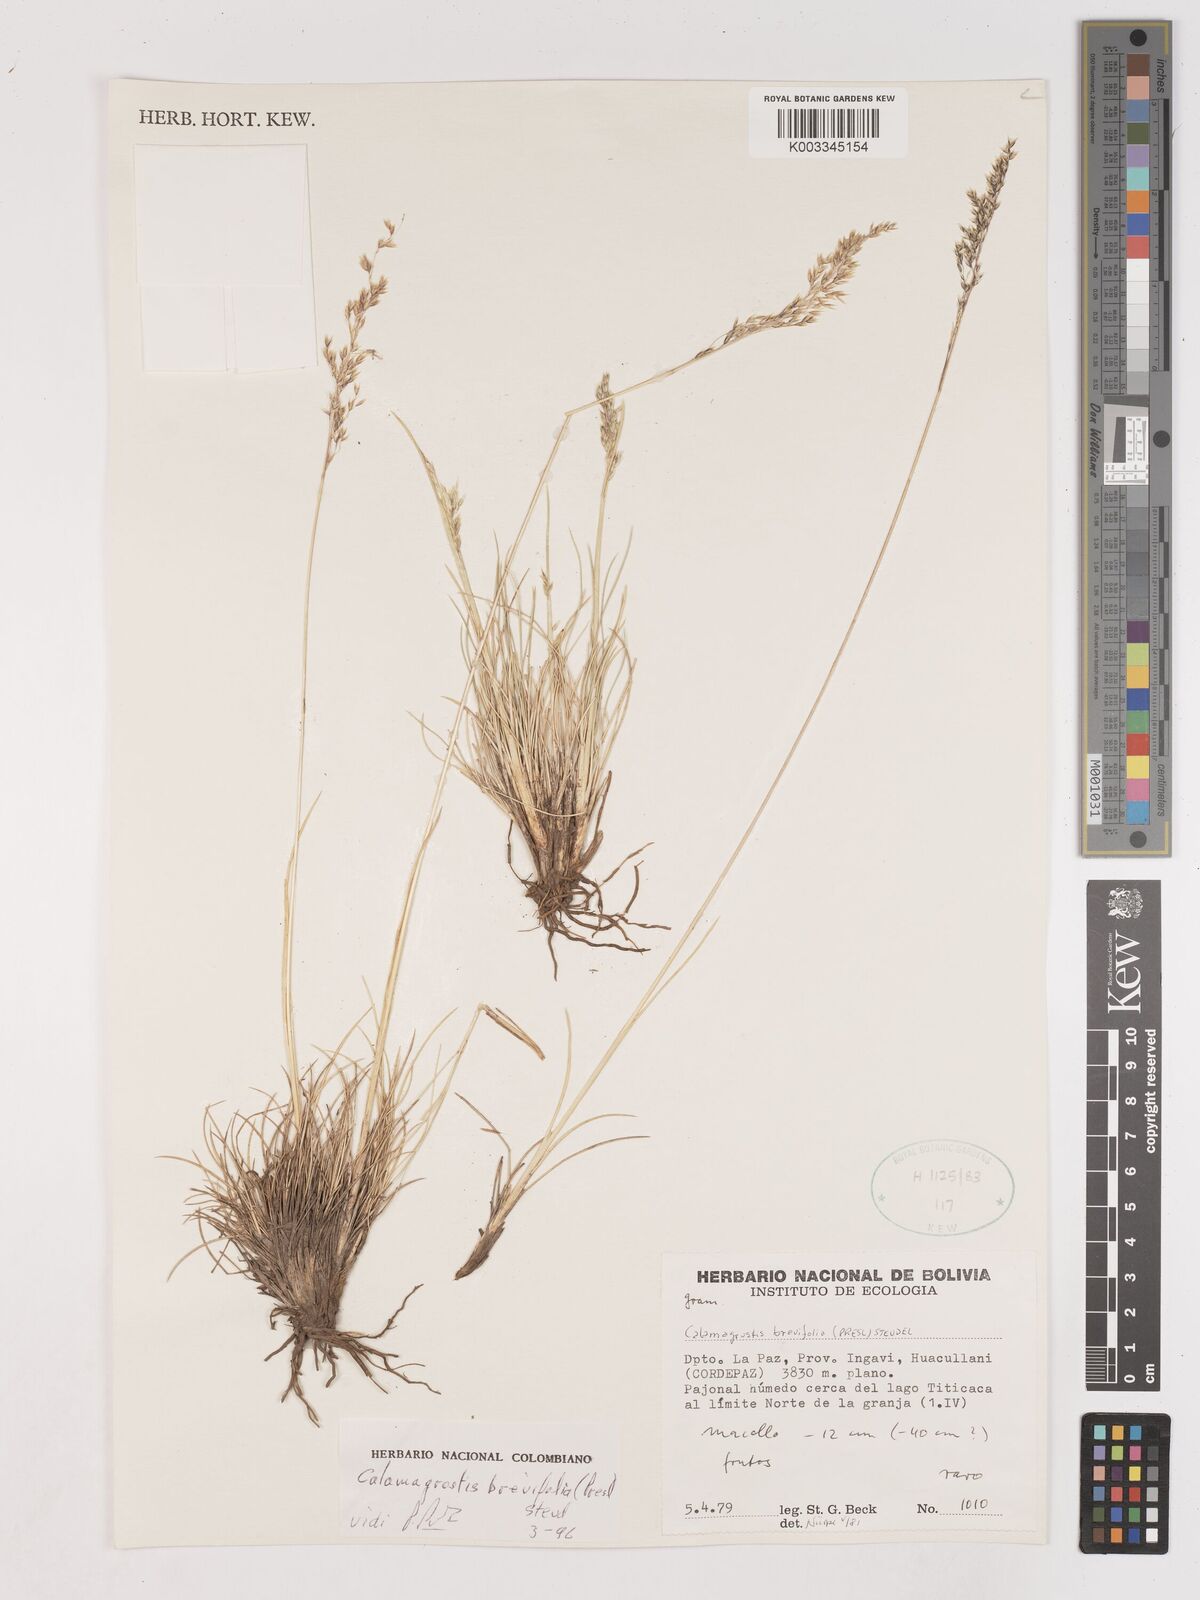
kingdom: Plantae
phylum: Tracheophyta
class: Liliopsida
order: Poales
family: Poaceae
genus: Calamagrostis
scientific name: Calamagrostis
